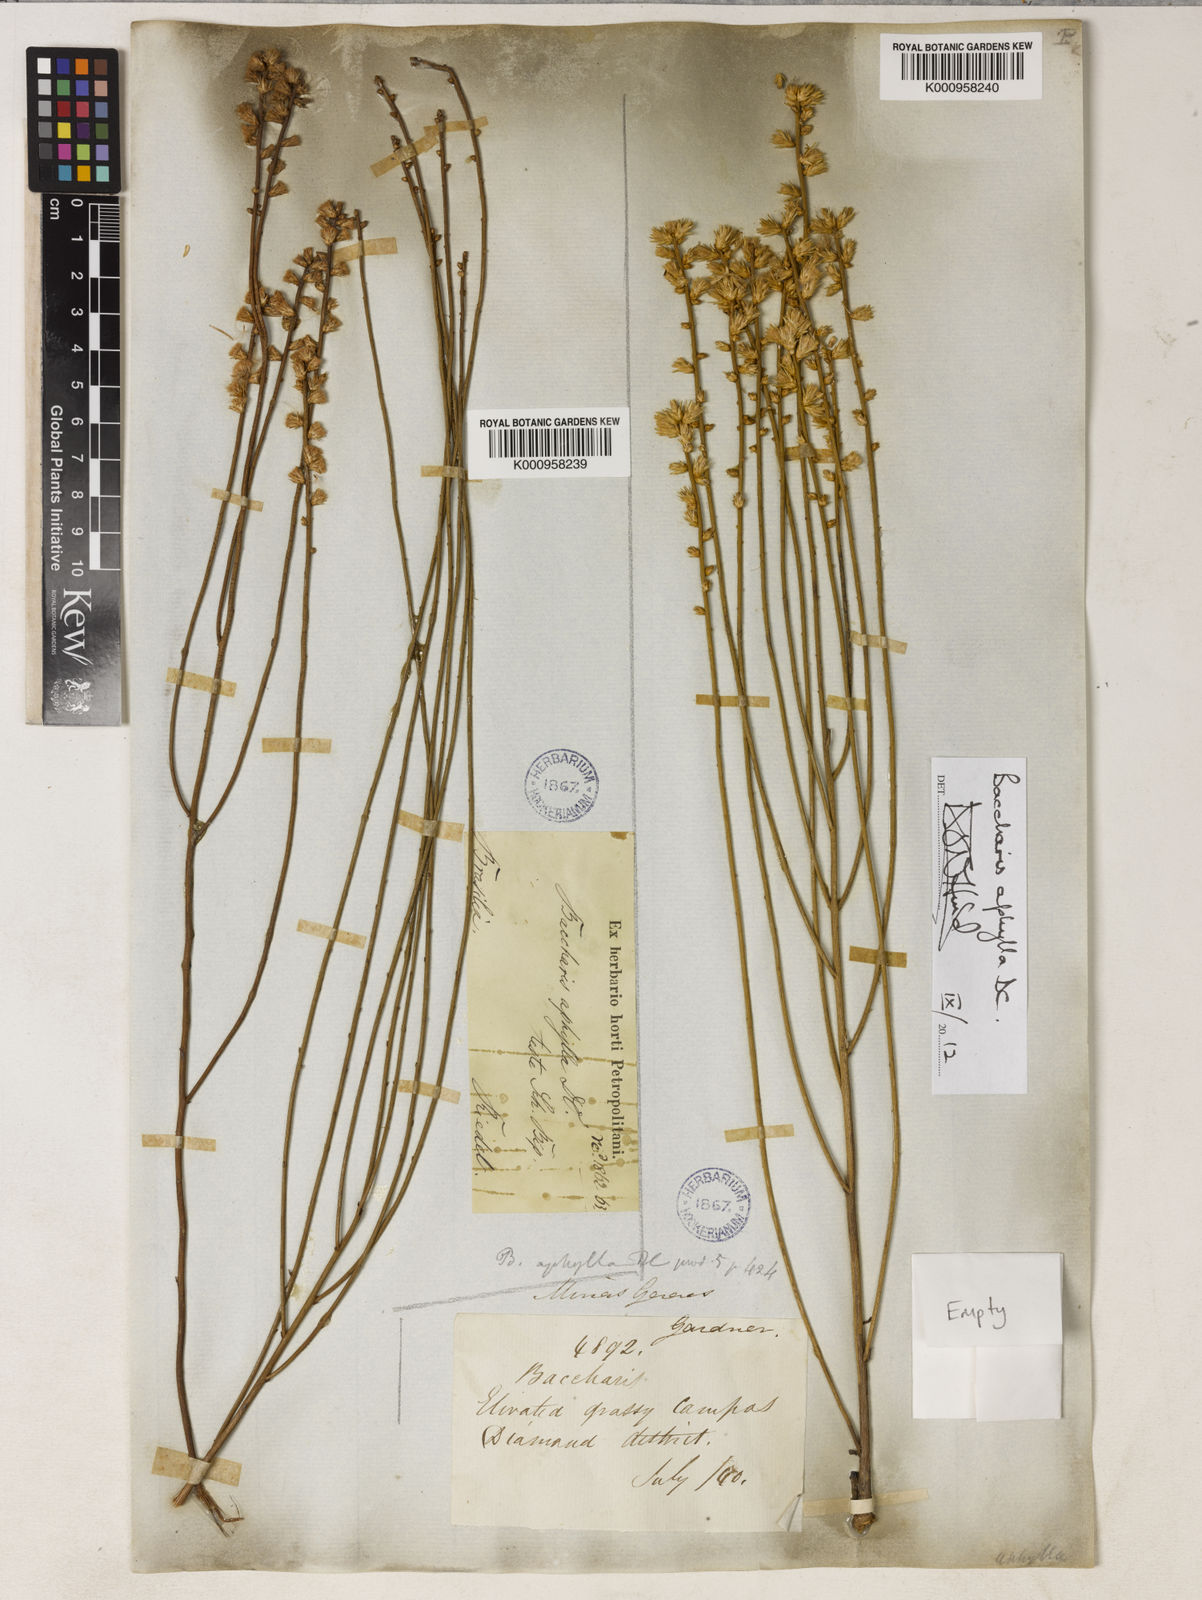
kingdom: Plantae
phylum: Tracheophyta
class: Magnoliopsida
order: Asterales
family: Asteraceae
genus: Baccharis
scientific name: Baccharis aphylla
